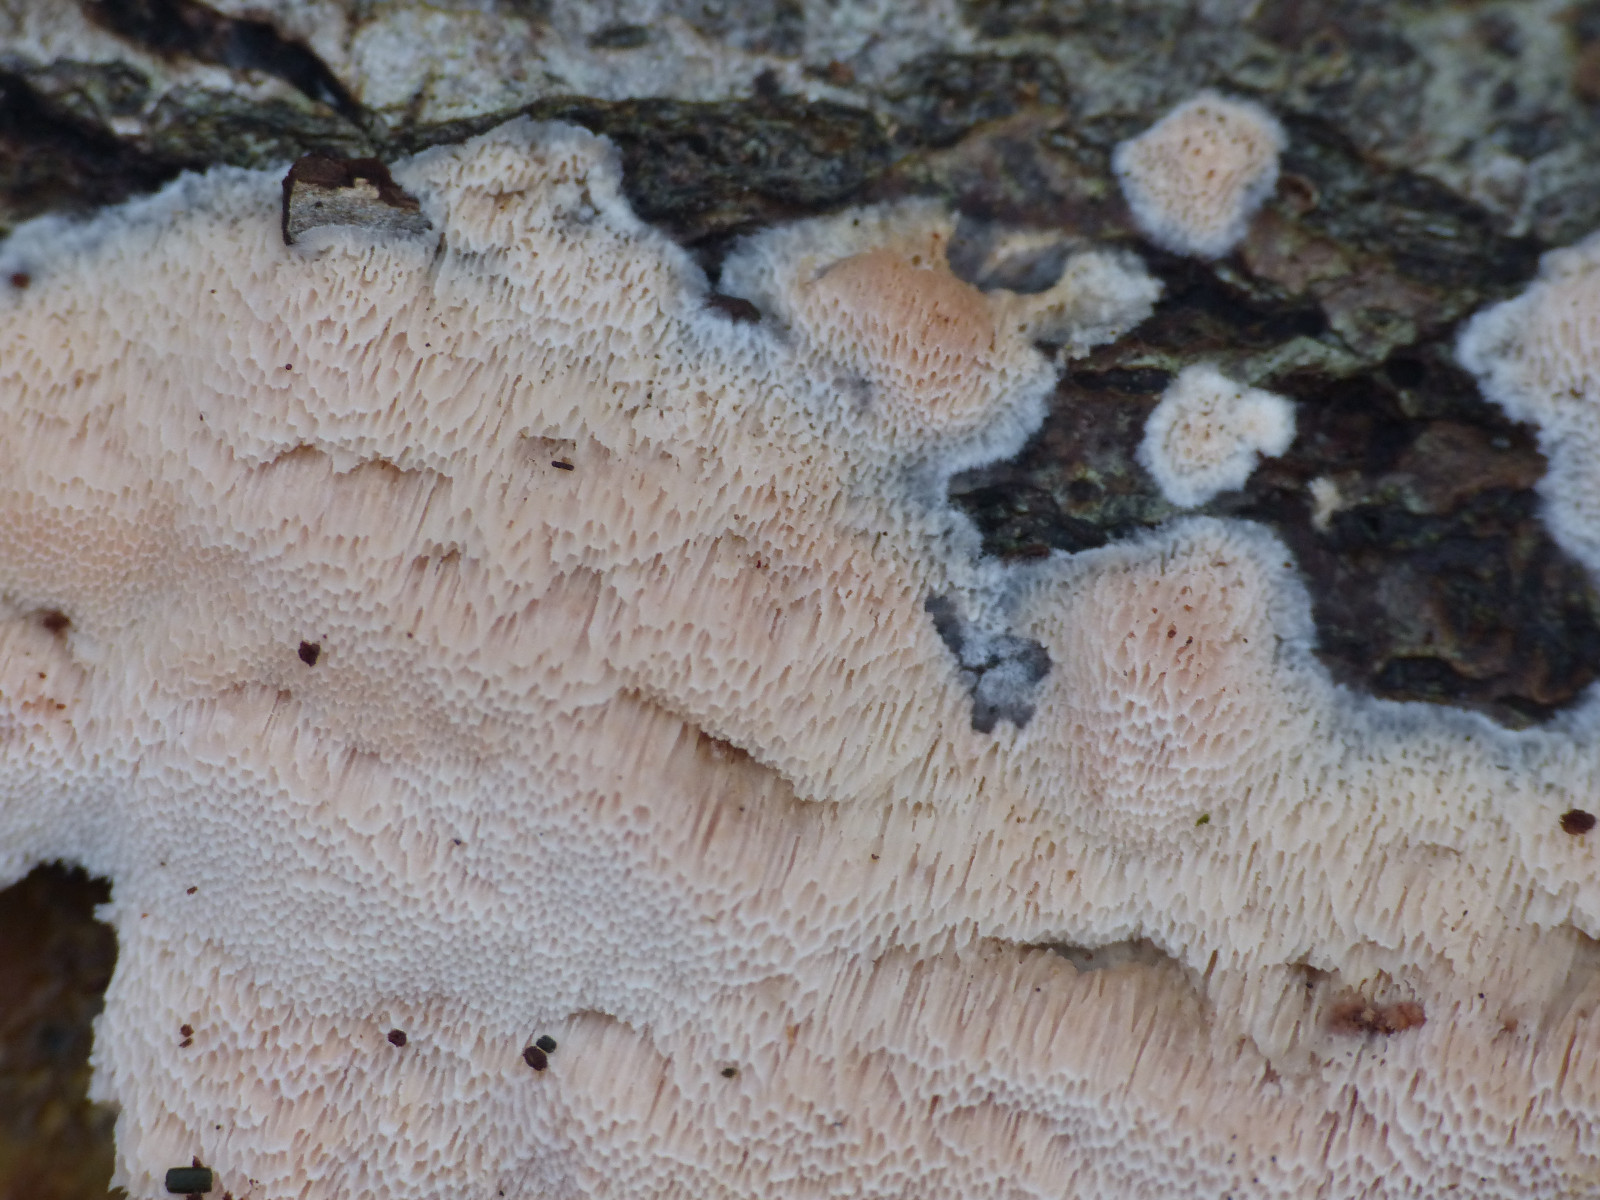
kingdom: Fungi
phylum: Basidiomycota
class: Agaricomycetes
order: Polyporales
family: Meruliaceae
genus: Mycoacia
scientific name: Mycoacia gilvescens
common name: rosa pastelporesvamp
